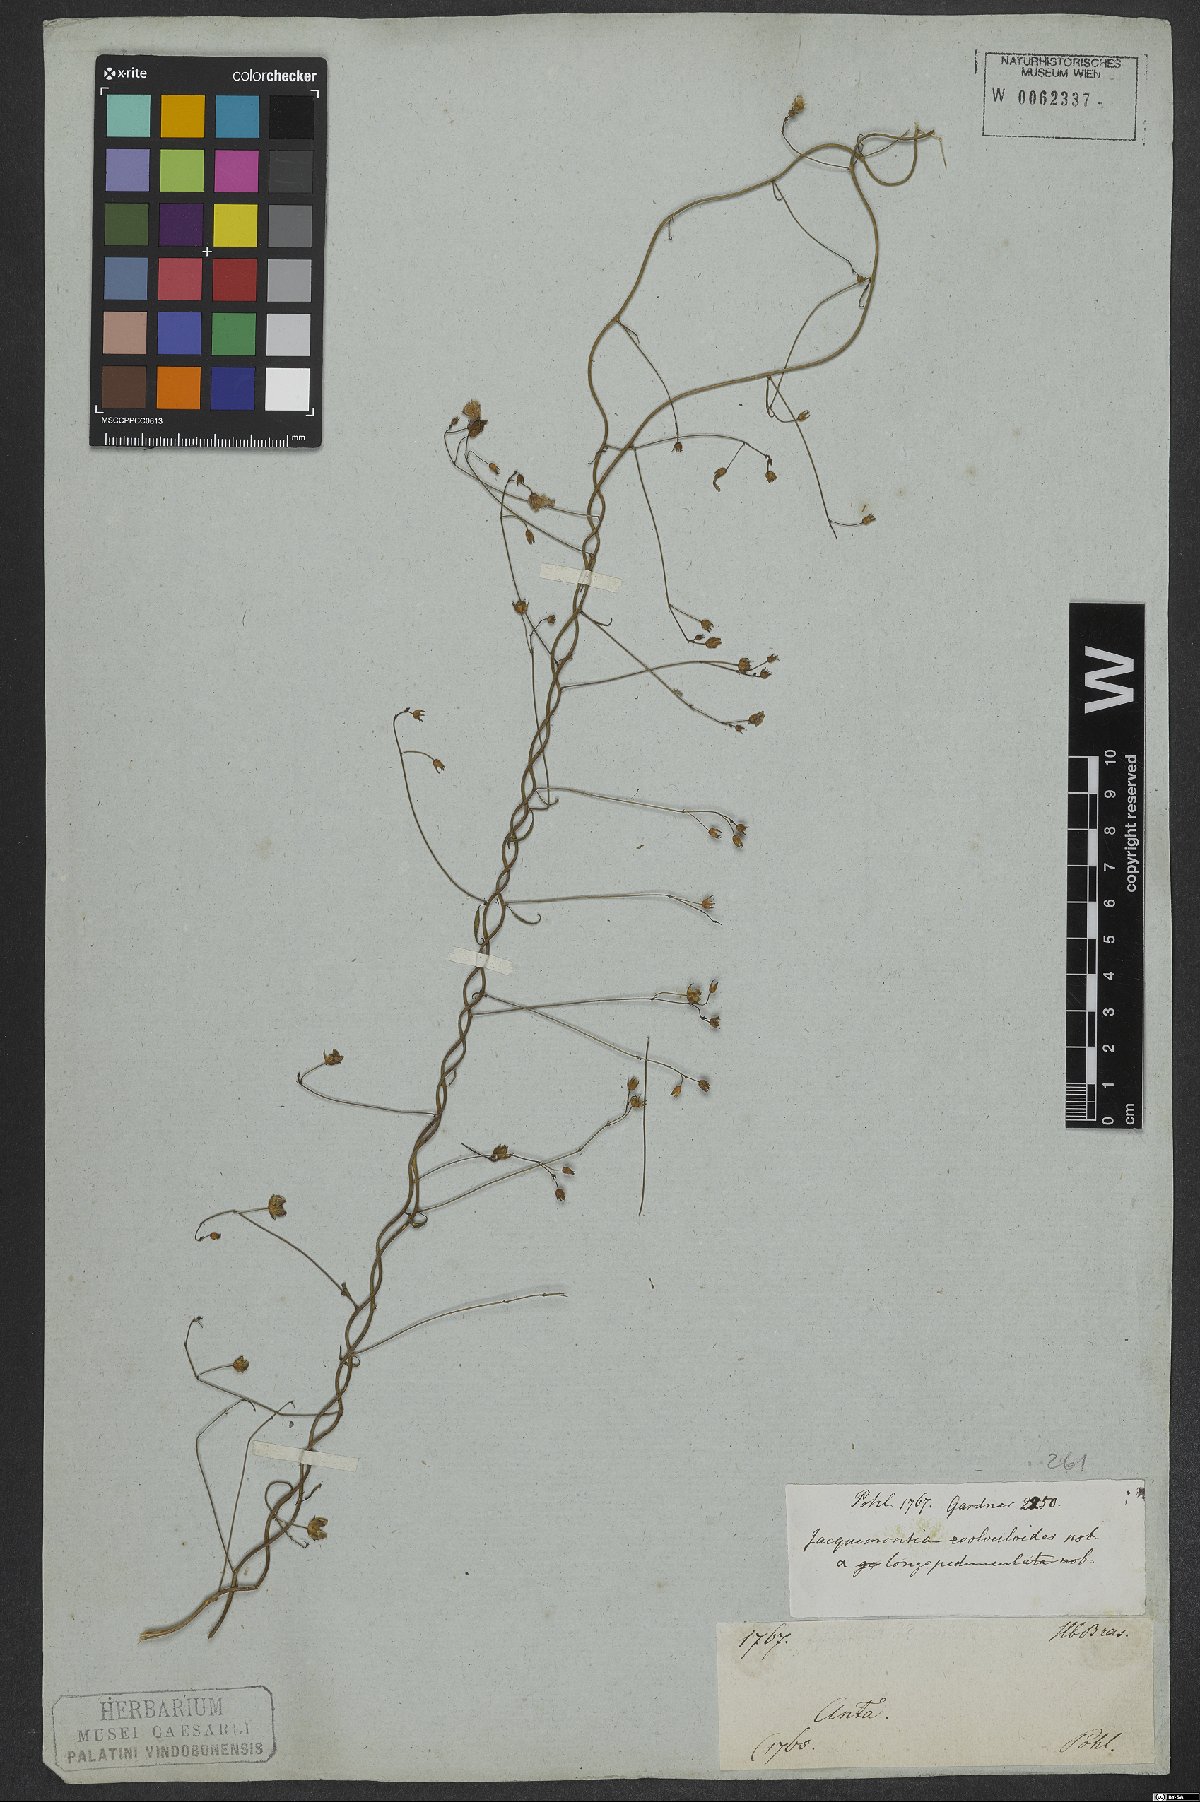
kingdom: Plantae
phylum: Tracheophyta
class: Magnoliopsida
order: Solanales
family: Convolvulaceae
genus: Jacquemontia
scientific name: Jacquemontia evolvuloides
